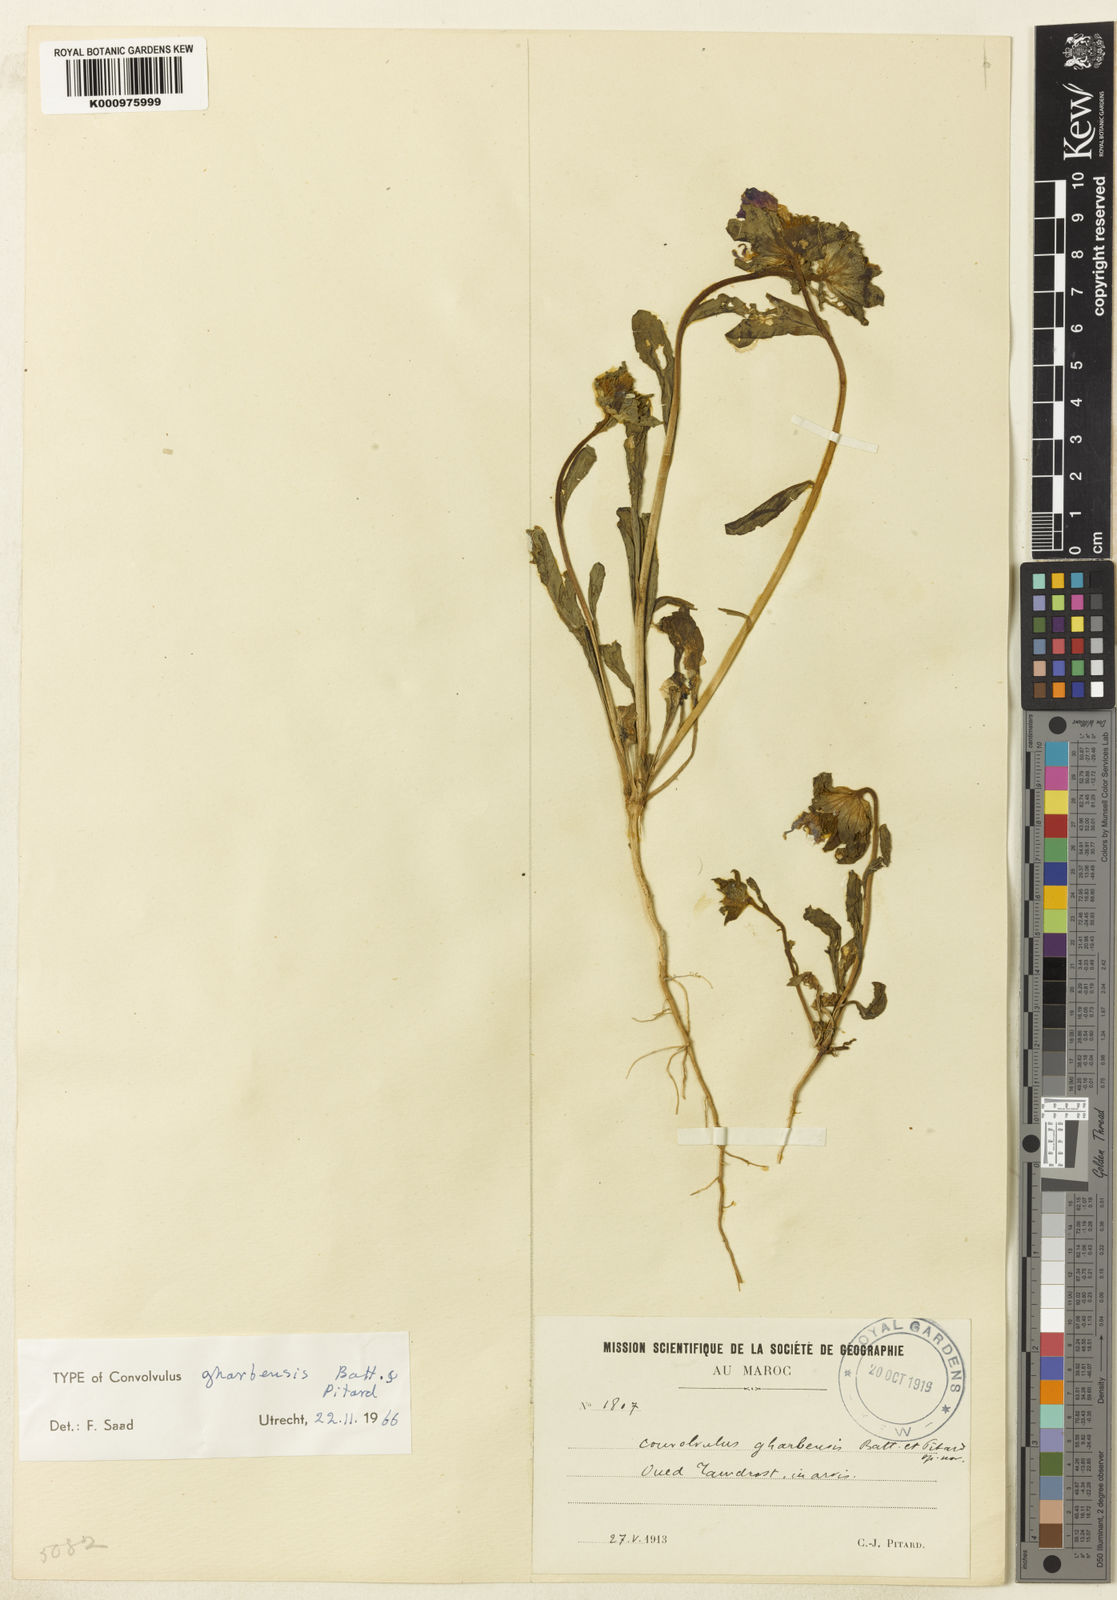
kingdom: Plantae
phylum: Tracheophyta
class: Magnoliopsida
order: Solanales
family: Convolvulaceae
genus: Convolvulus
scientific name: Convolvulus gharbensis
